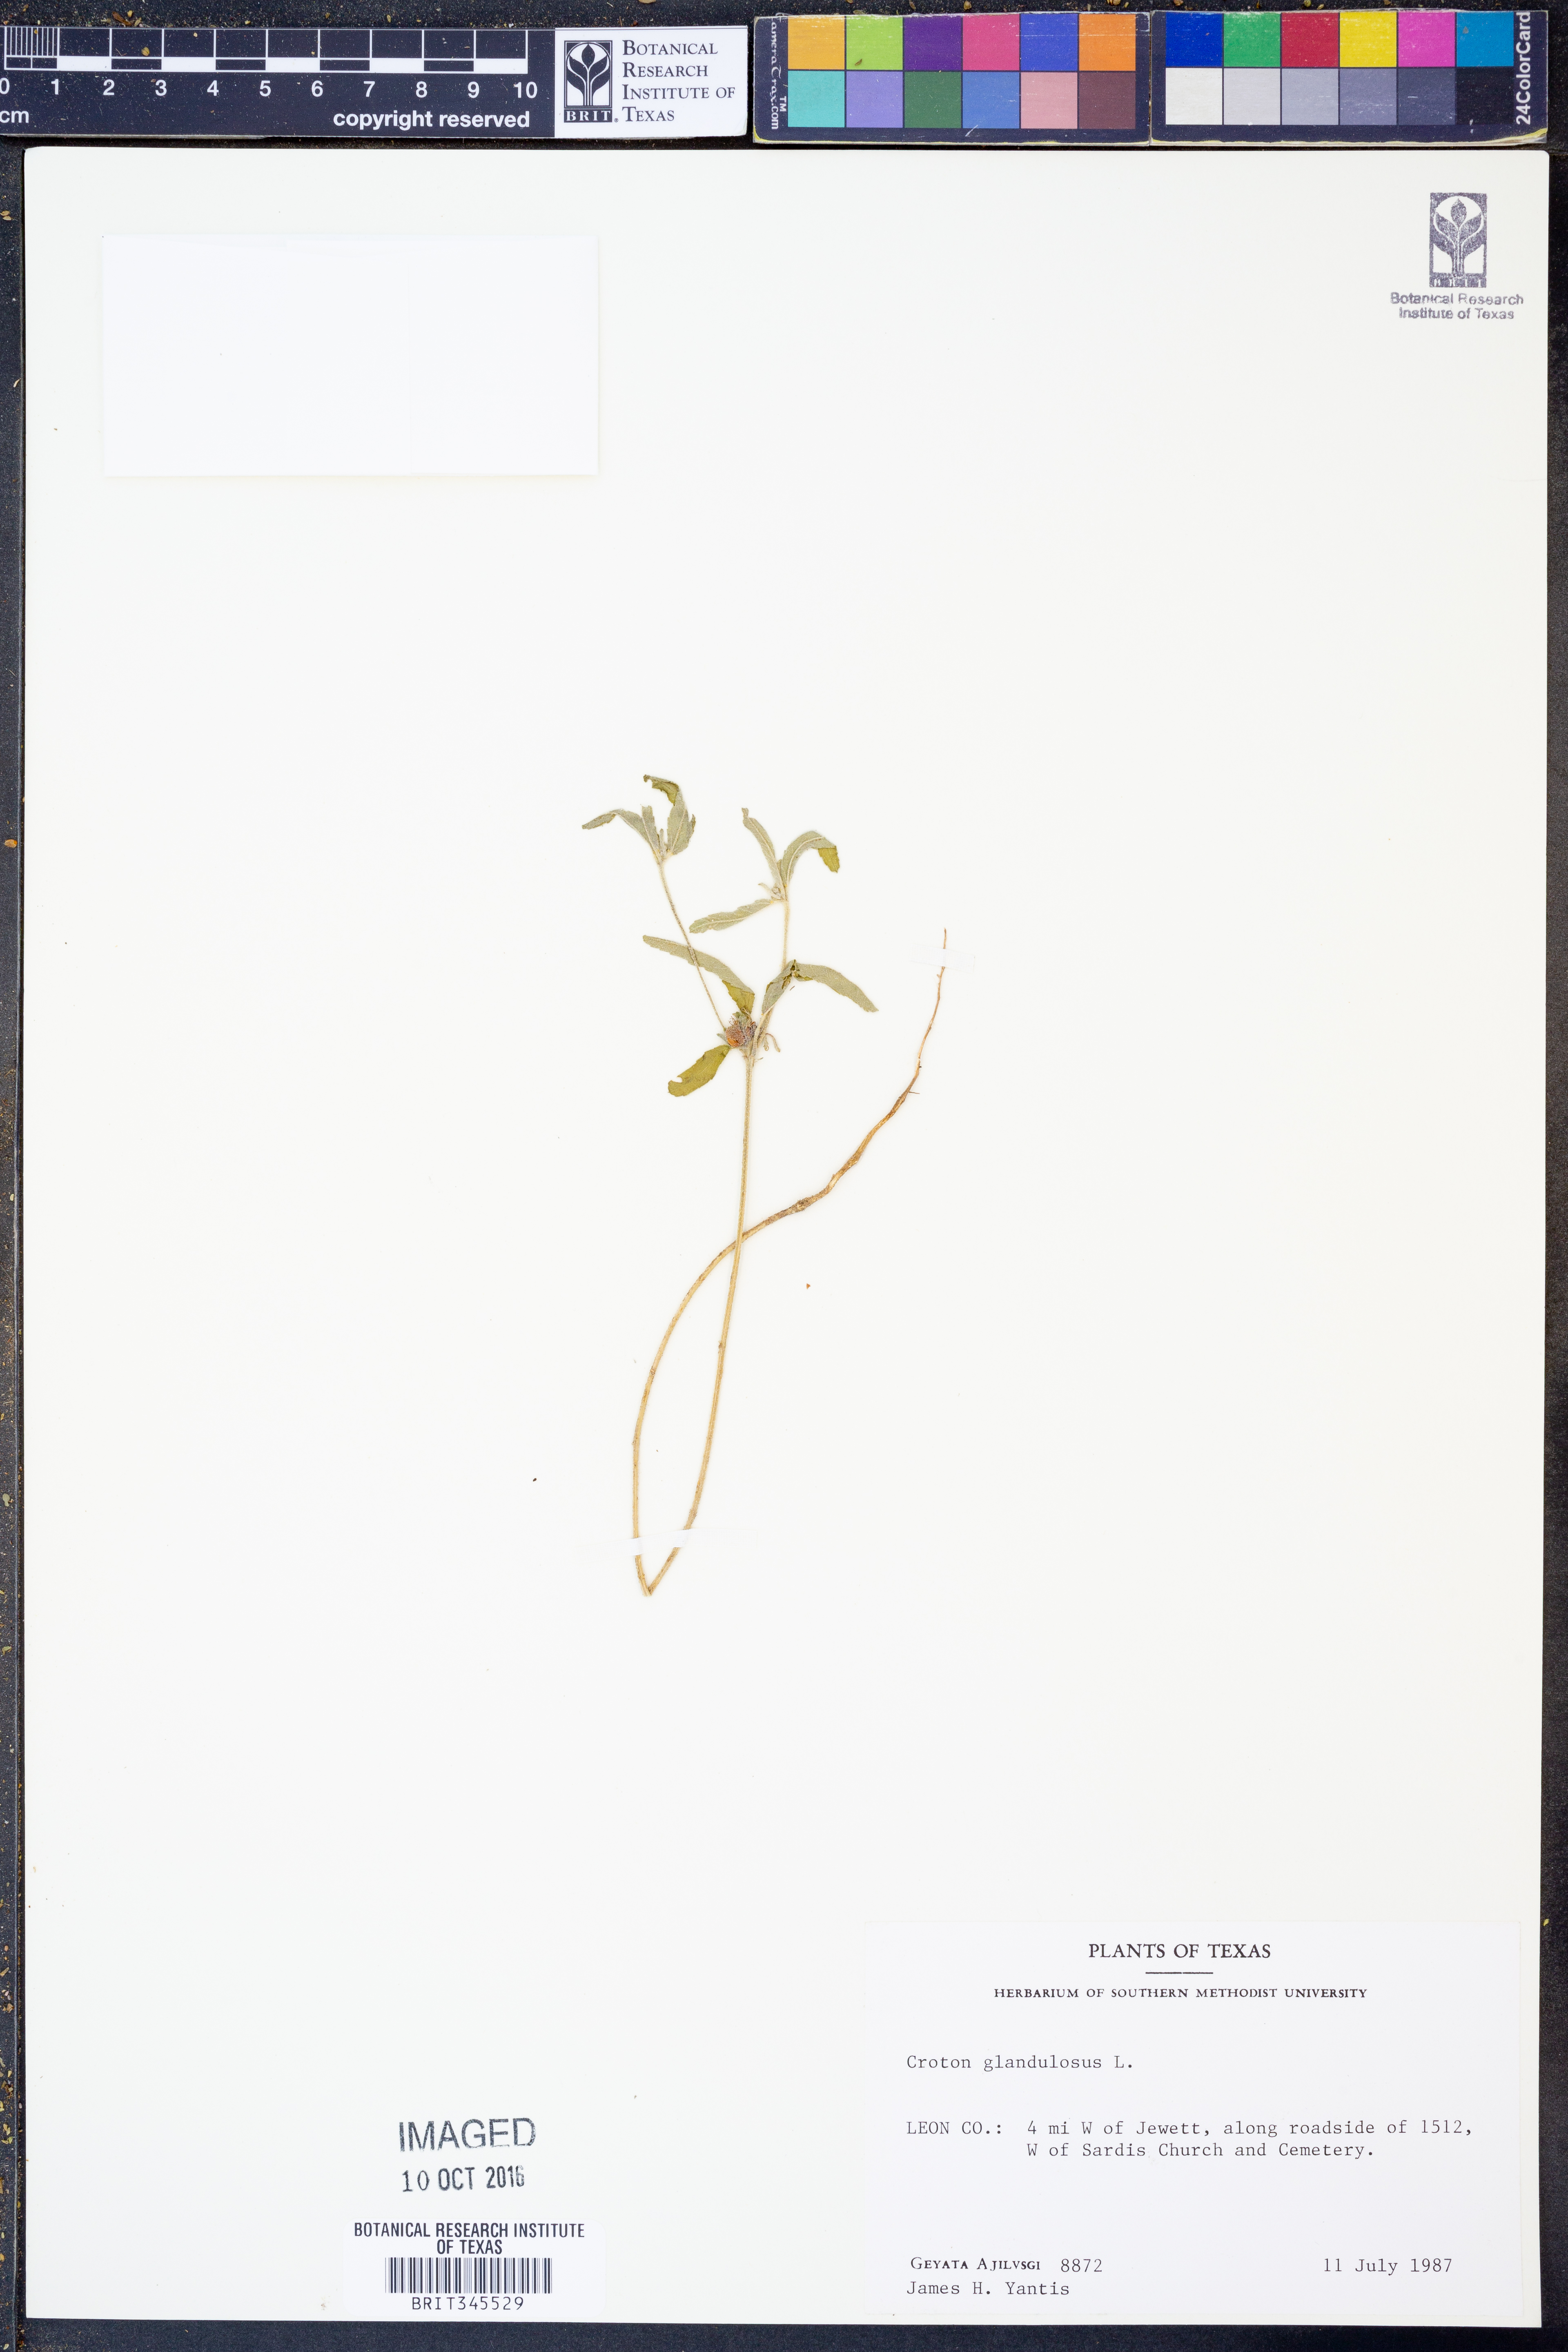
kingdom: Plantae
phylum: Tracheophyta
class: Magnoliopsida
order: Malpighiales
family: Euphorbiaceae
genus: Croton
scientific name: Croton glandulosus
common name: Tropic croton
